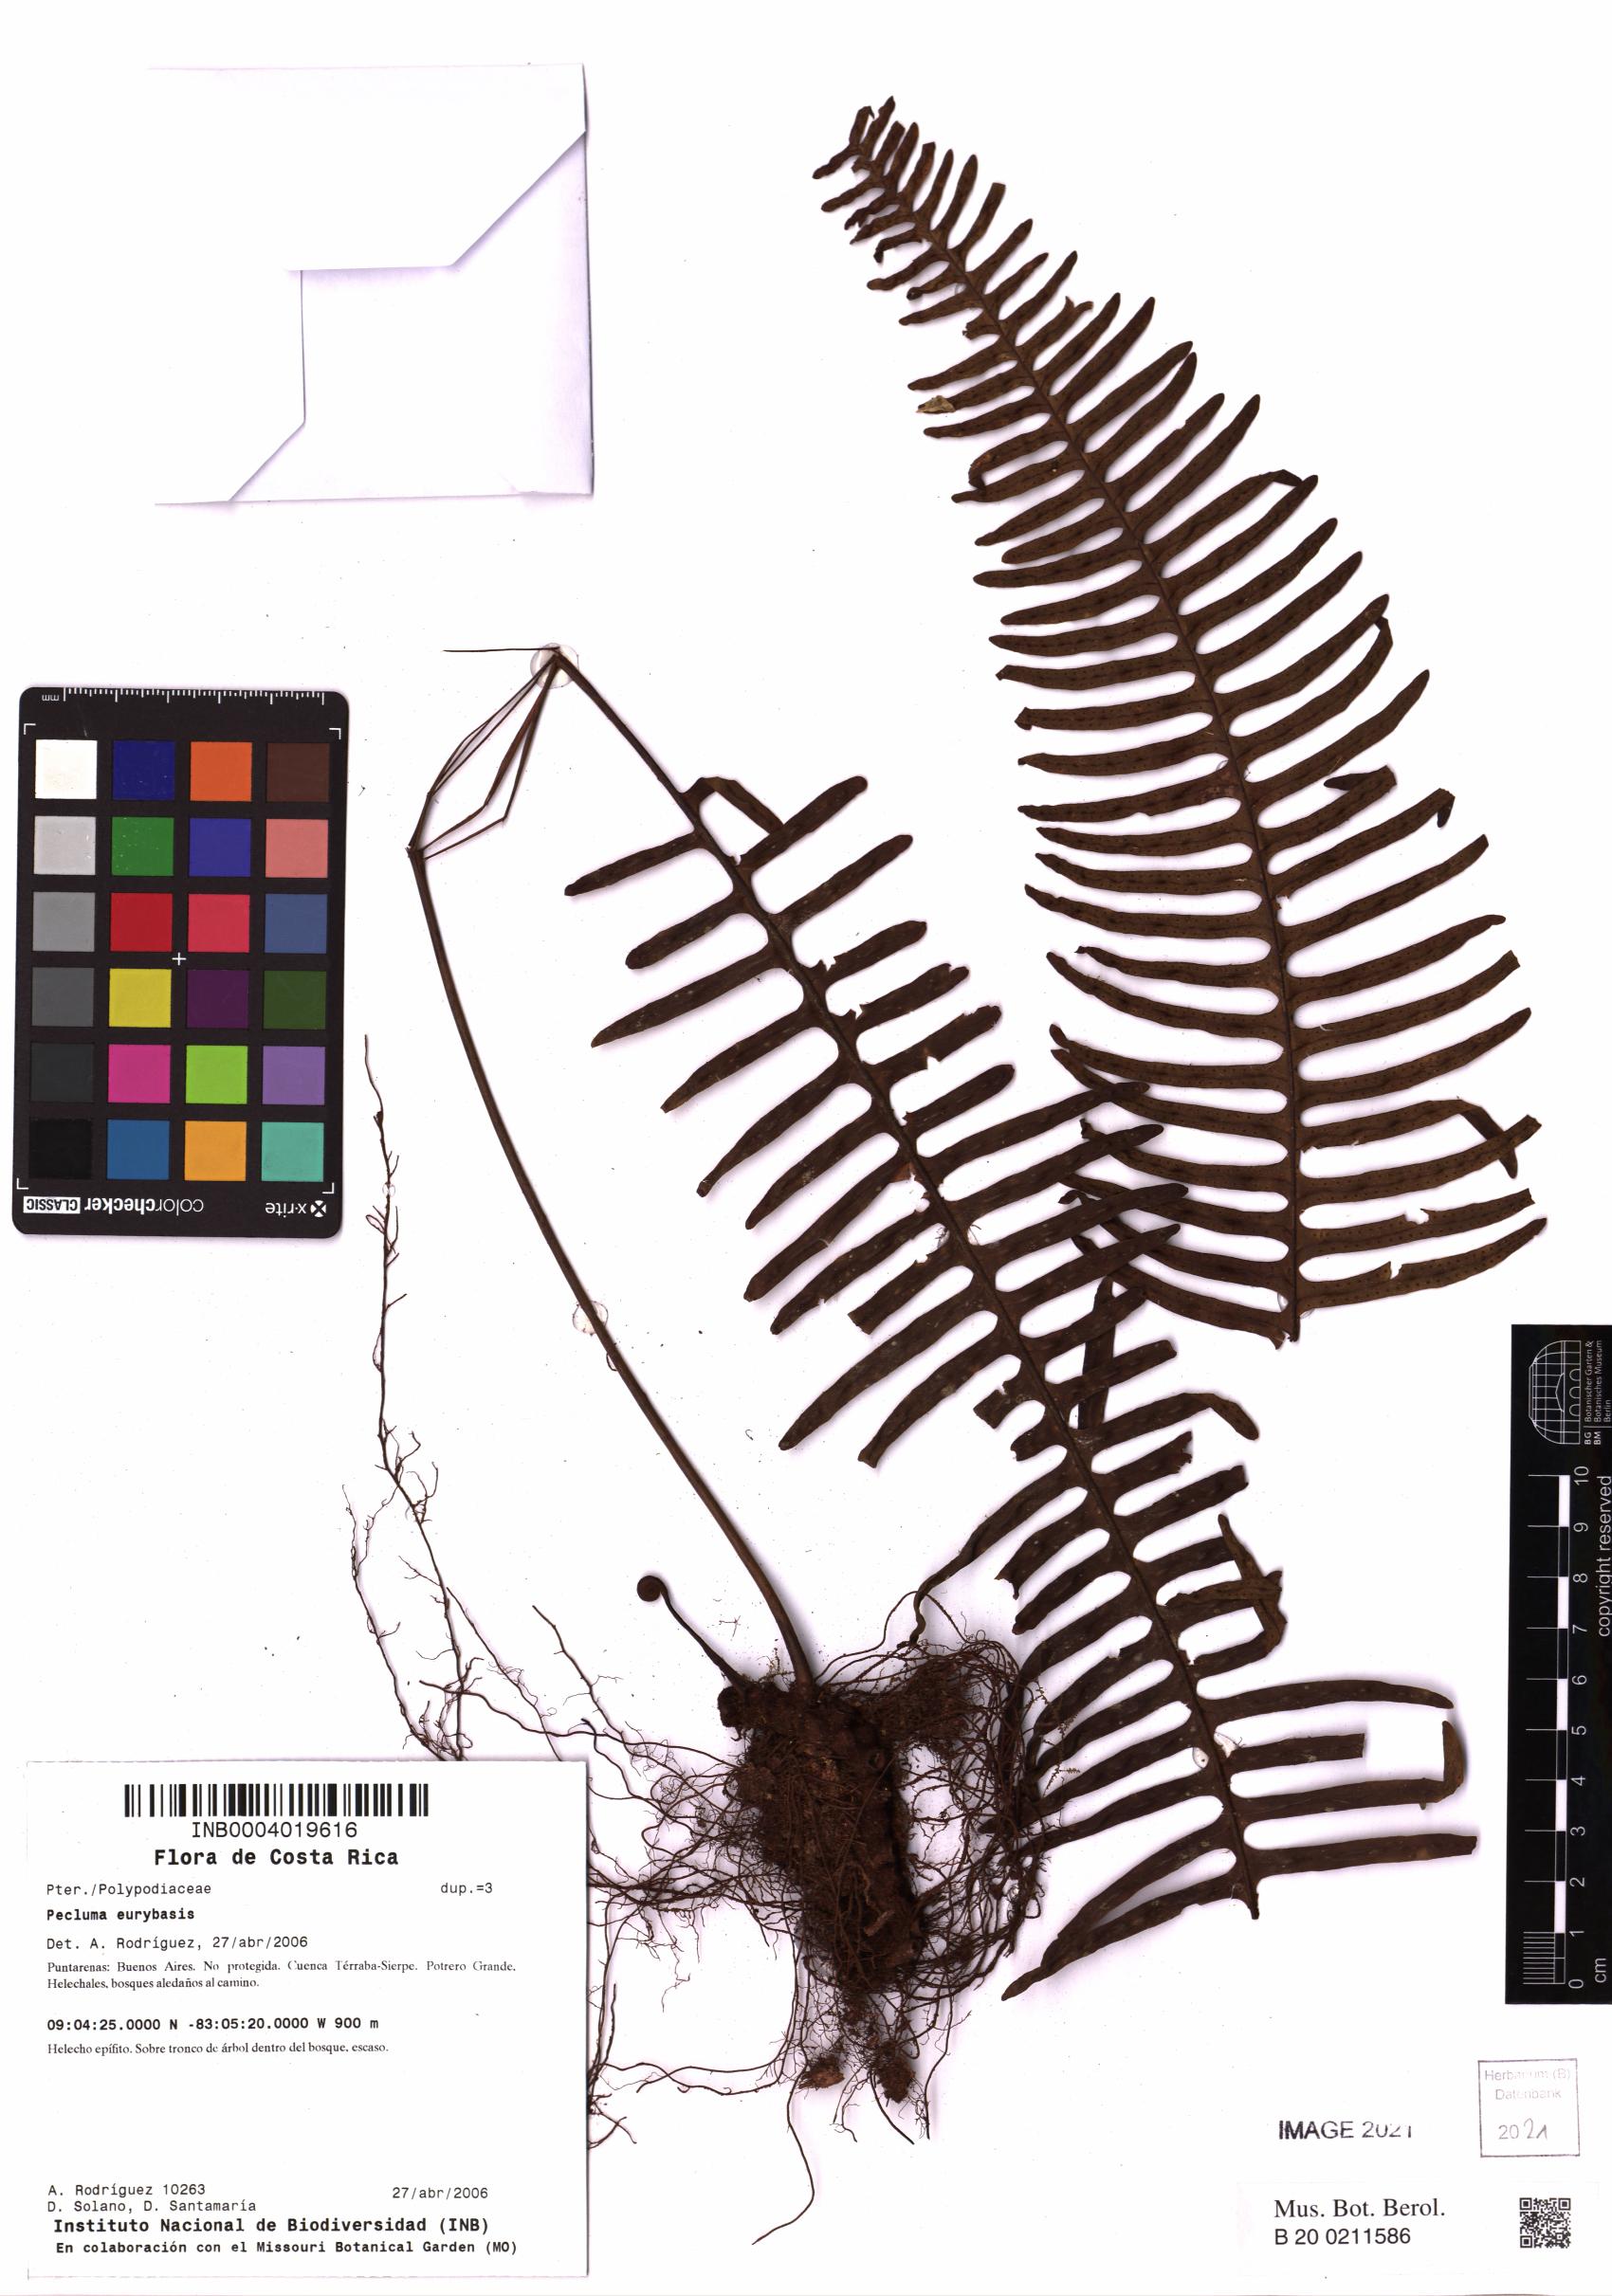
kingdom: Plantae
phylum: Tracheophyta
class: Polypodiopsida
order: Polypodiales
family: Polypodiaceae
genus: Pecluma
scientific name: Pecluma eurybasis
